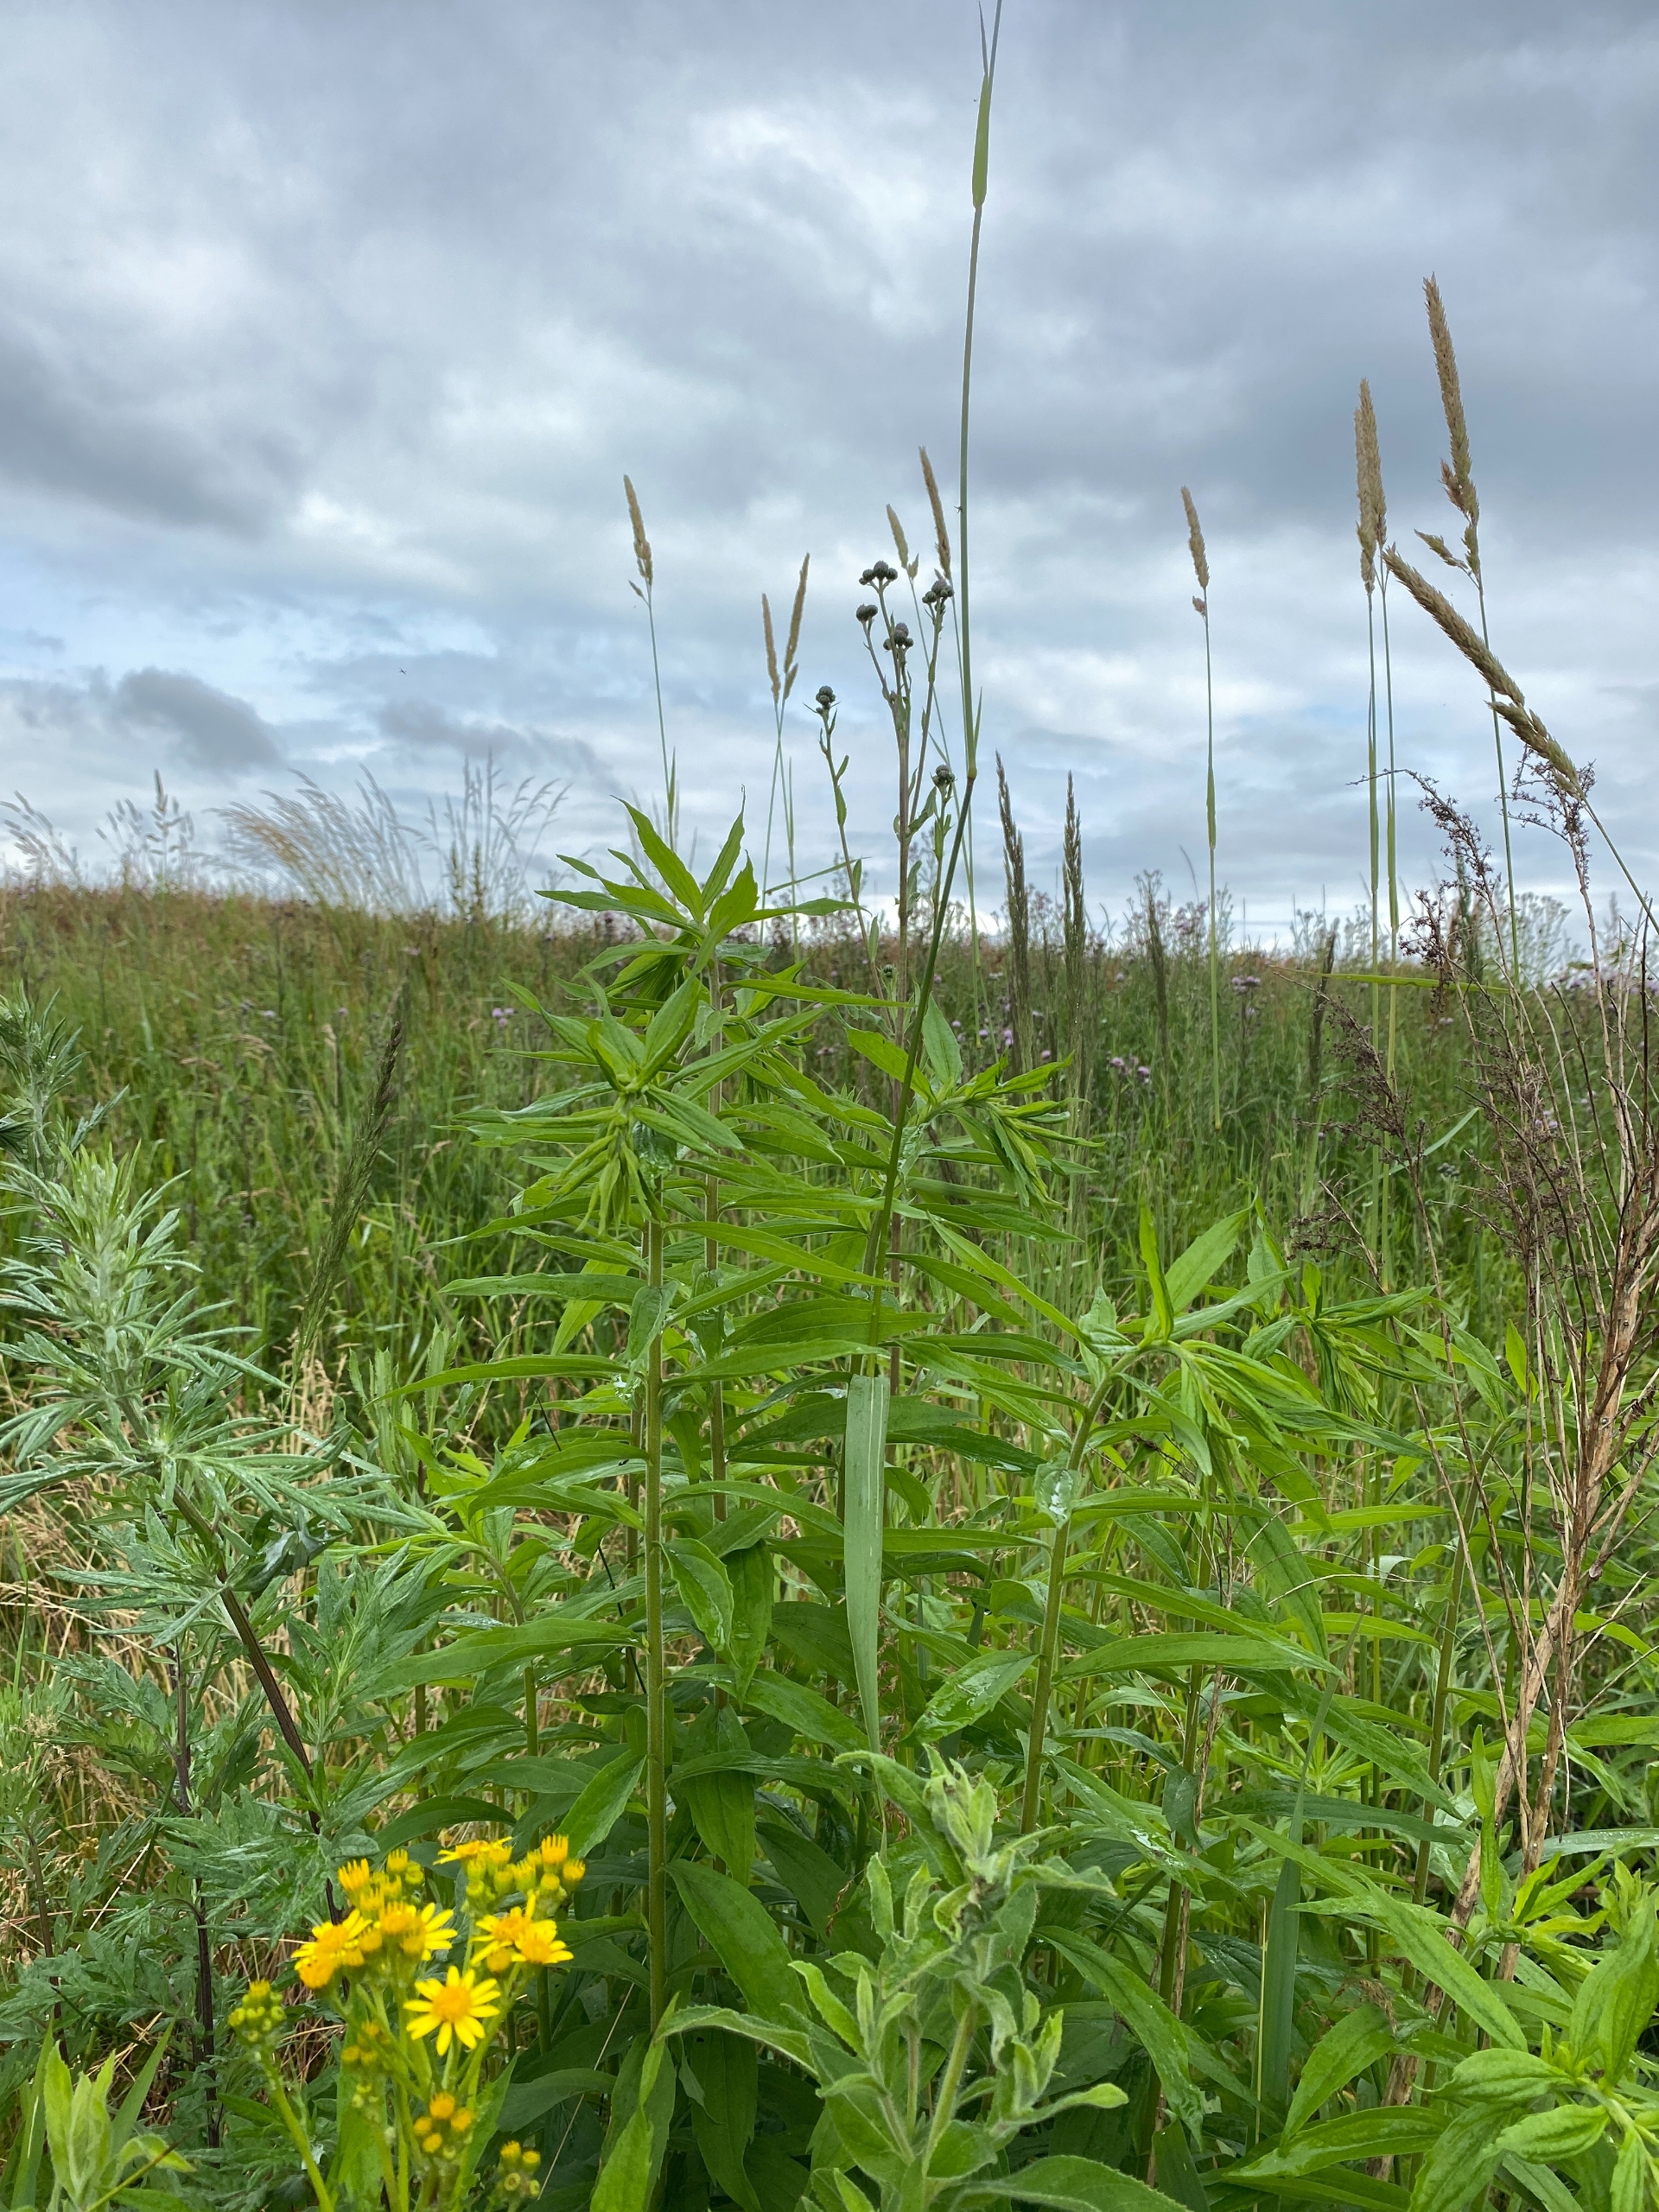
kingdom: Plantae
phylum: Tracheophyta
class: Liliopsida
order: Poales
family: Poaceae
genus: Phalaris
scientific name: Phalaris arundinacea
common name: Rørgræs
